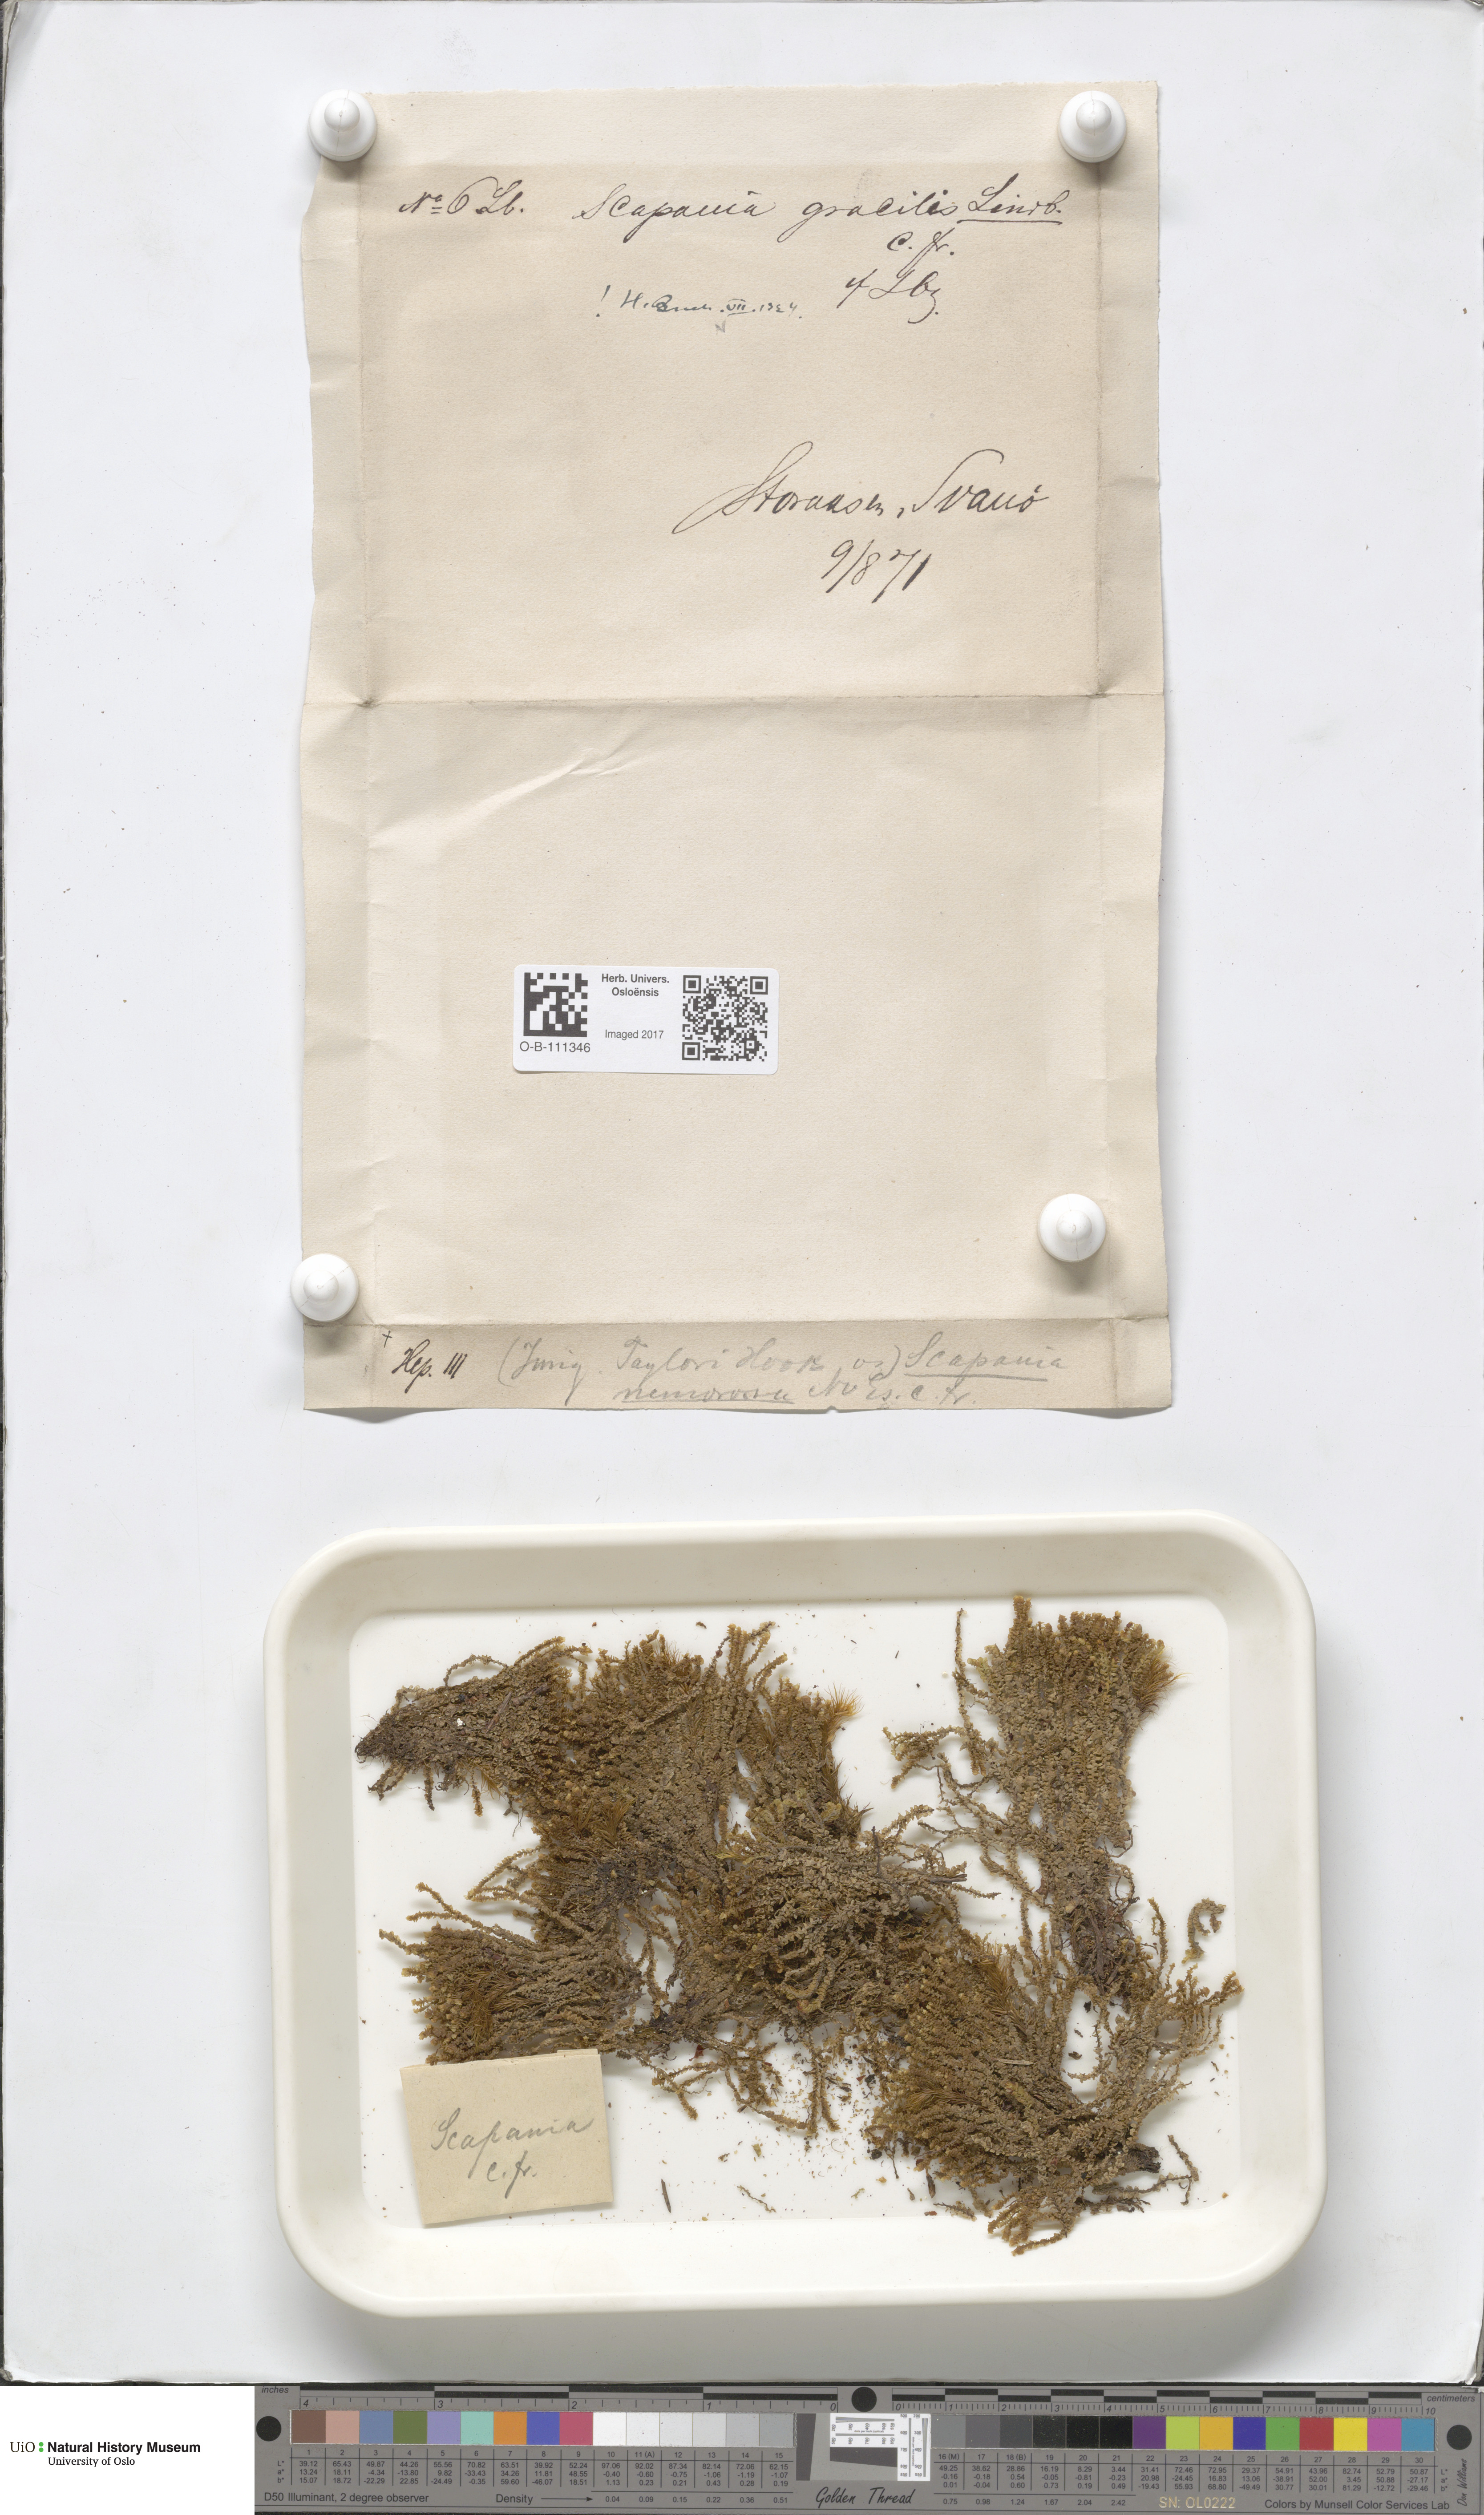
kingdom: Plantae
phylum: Marchantiophyta
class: Jungermanniopsida
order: Jungermanniales
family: Scapaniaceae
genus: Scapania
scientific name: Scapania gracilis
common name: Western earwort
